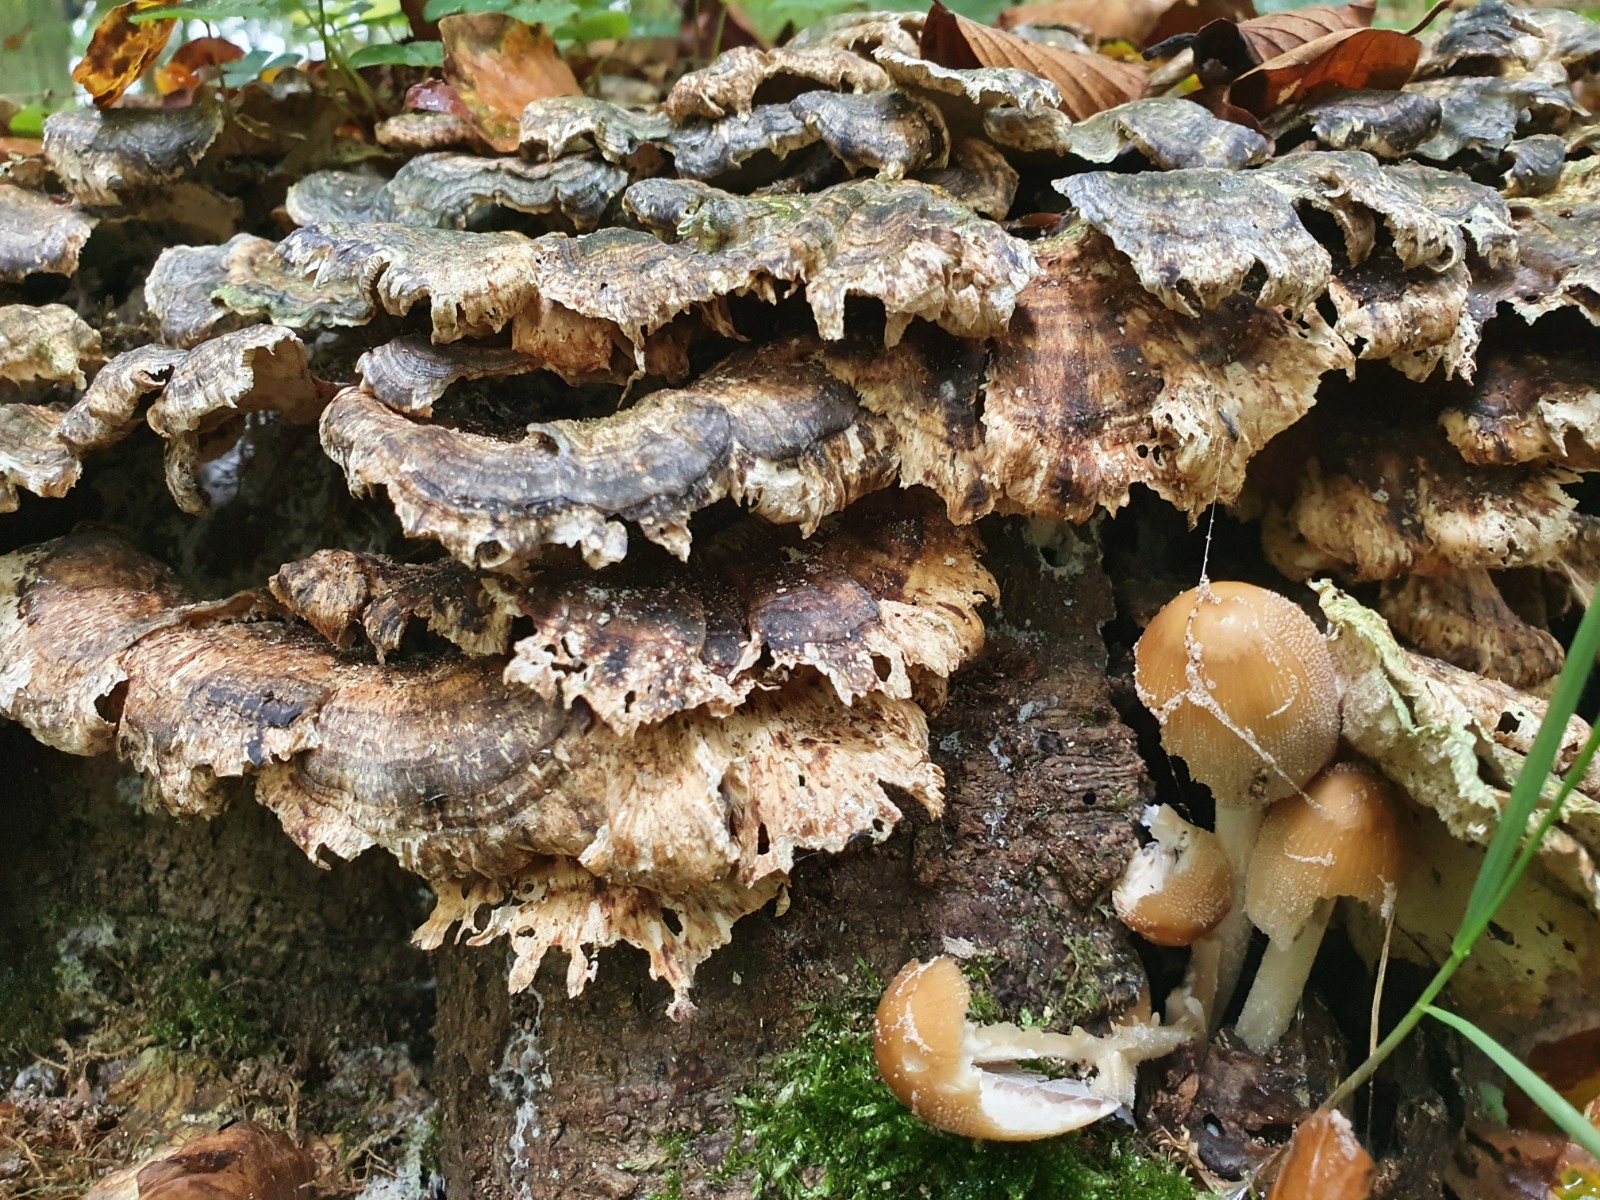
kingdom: Fungi
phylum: Basidiomycota
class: Agaricomycetes
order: Polyporales
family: Polyporaceae
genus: Trametes
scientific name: Trametes versicolor
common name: broget læderporesvamp
